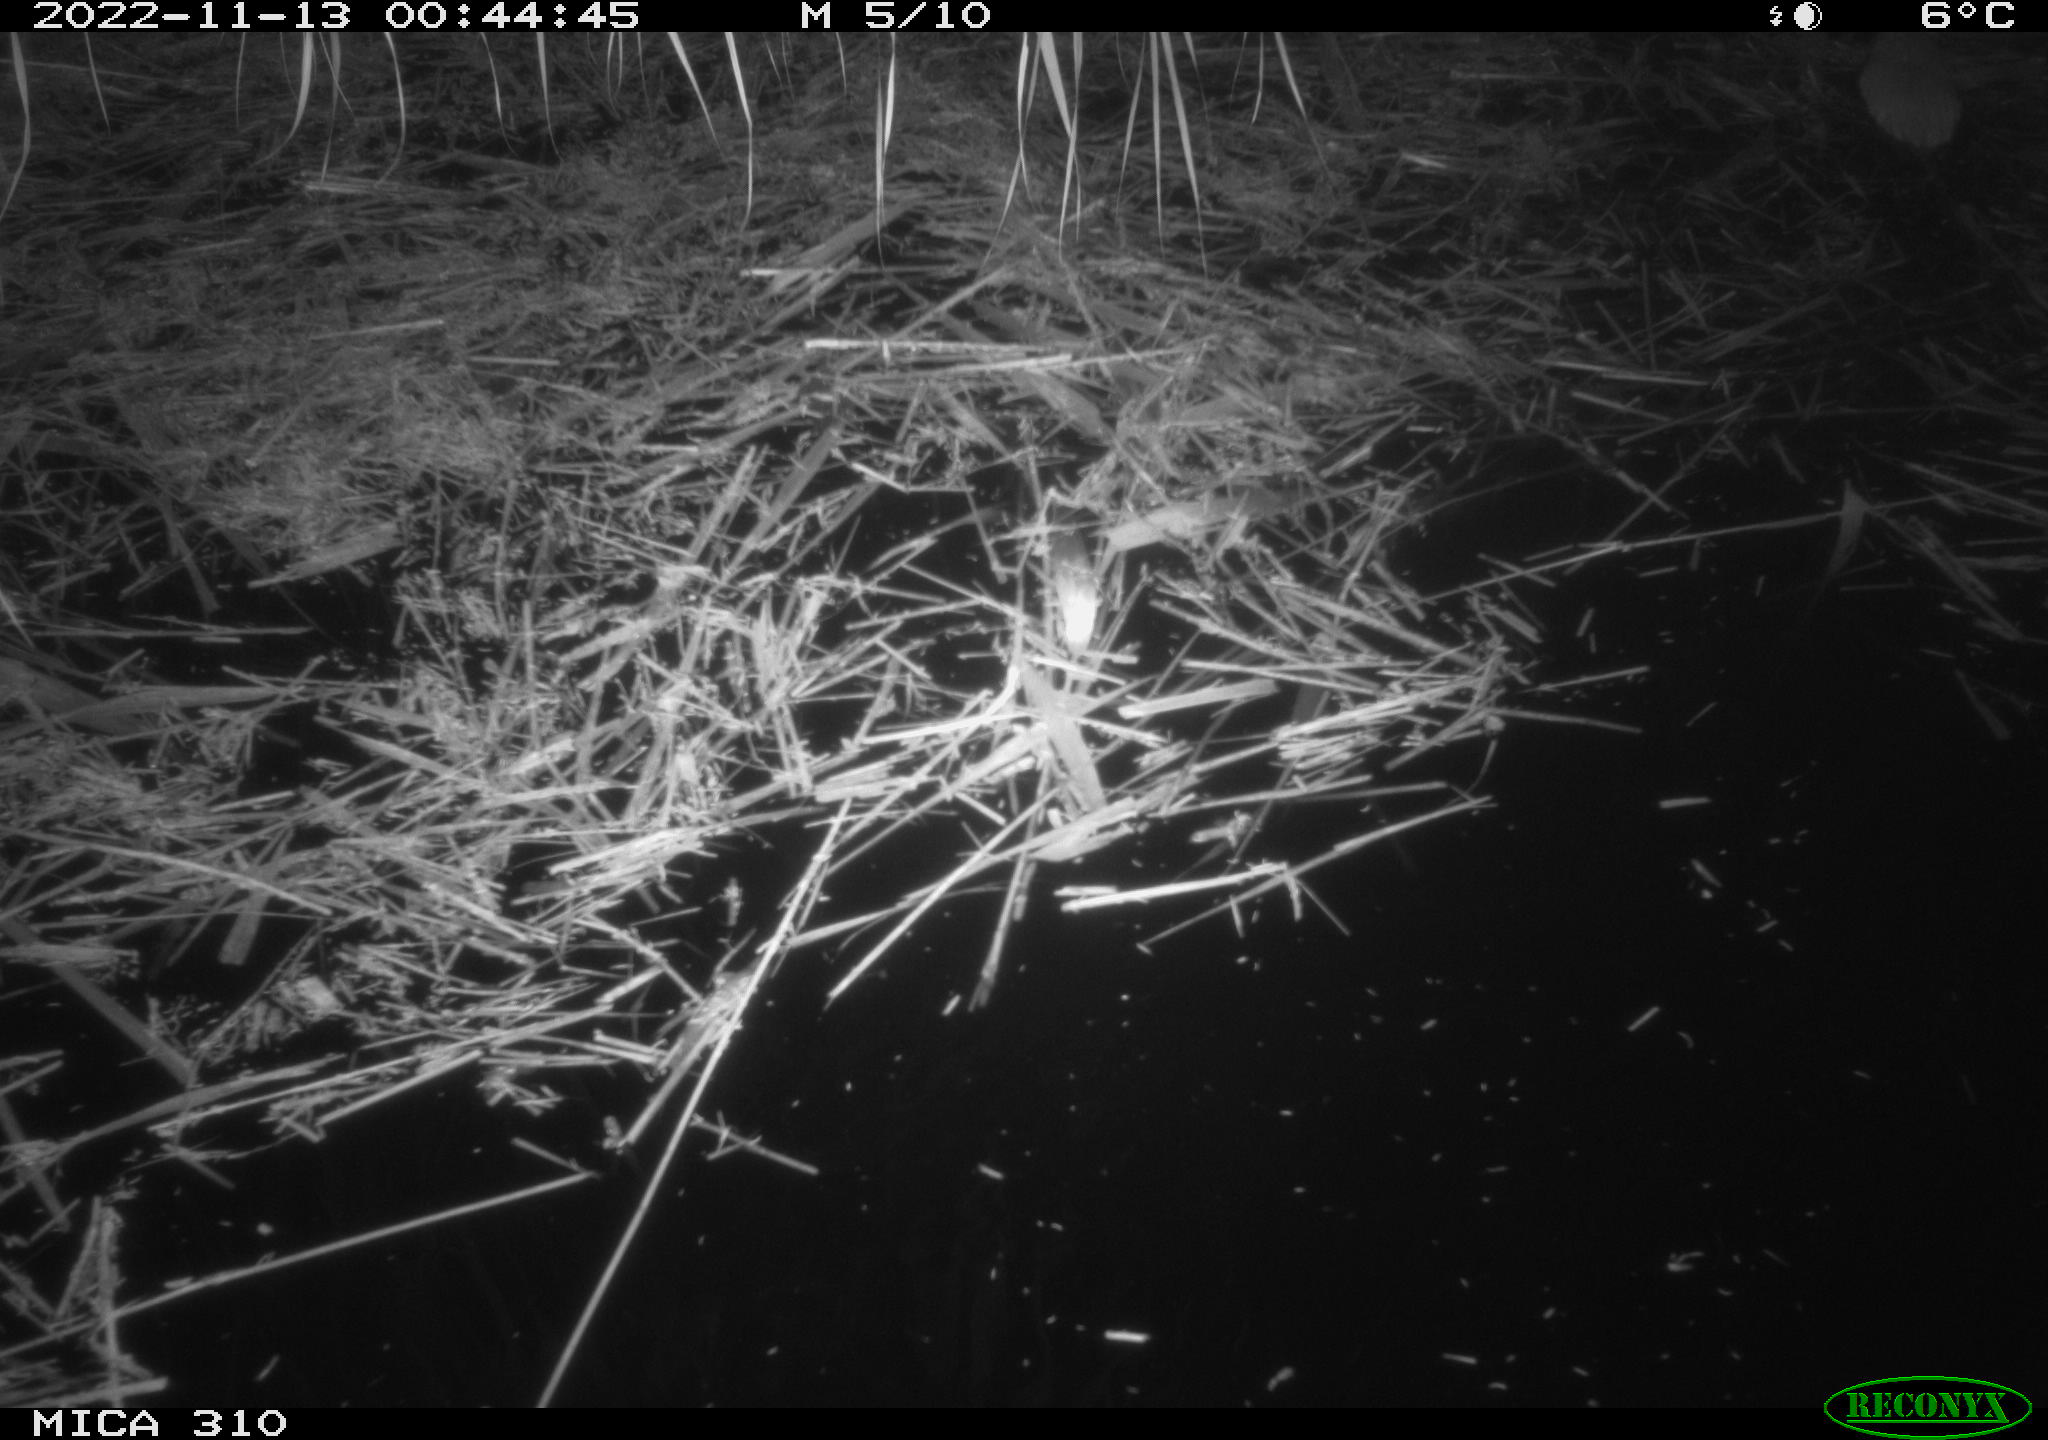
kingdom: Animalia
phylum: Chordata
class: Mammalia
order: Rodentia
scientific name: Rodentia
